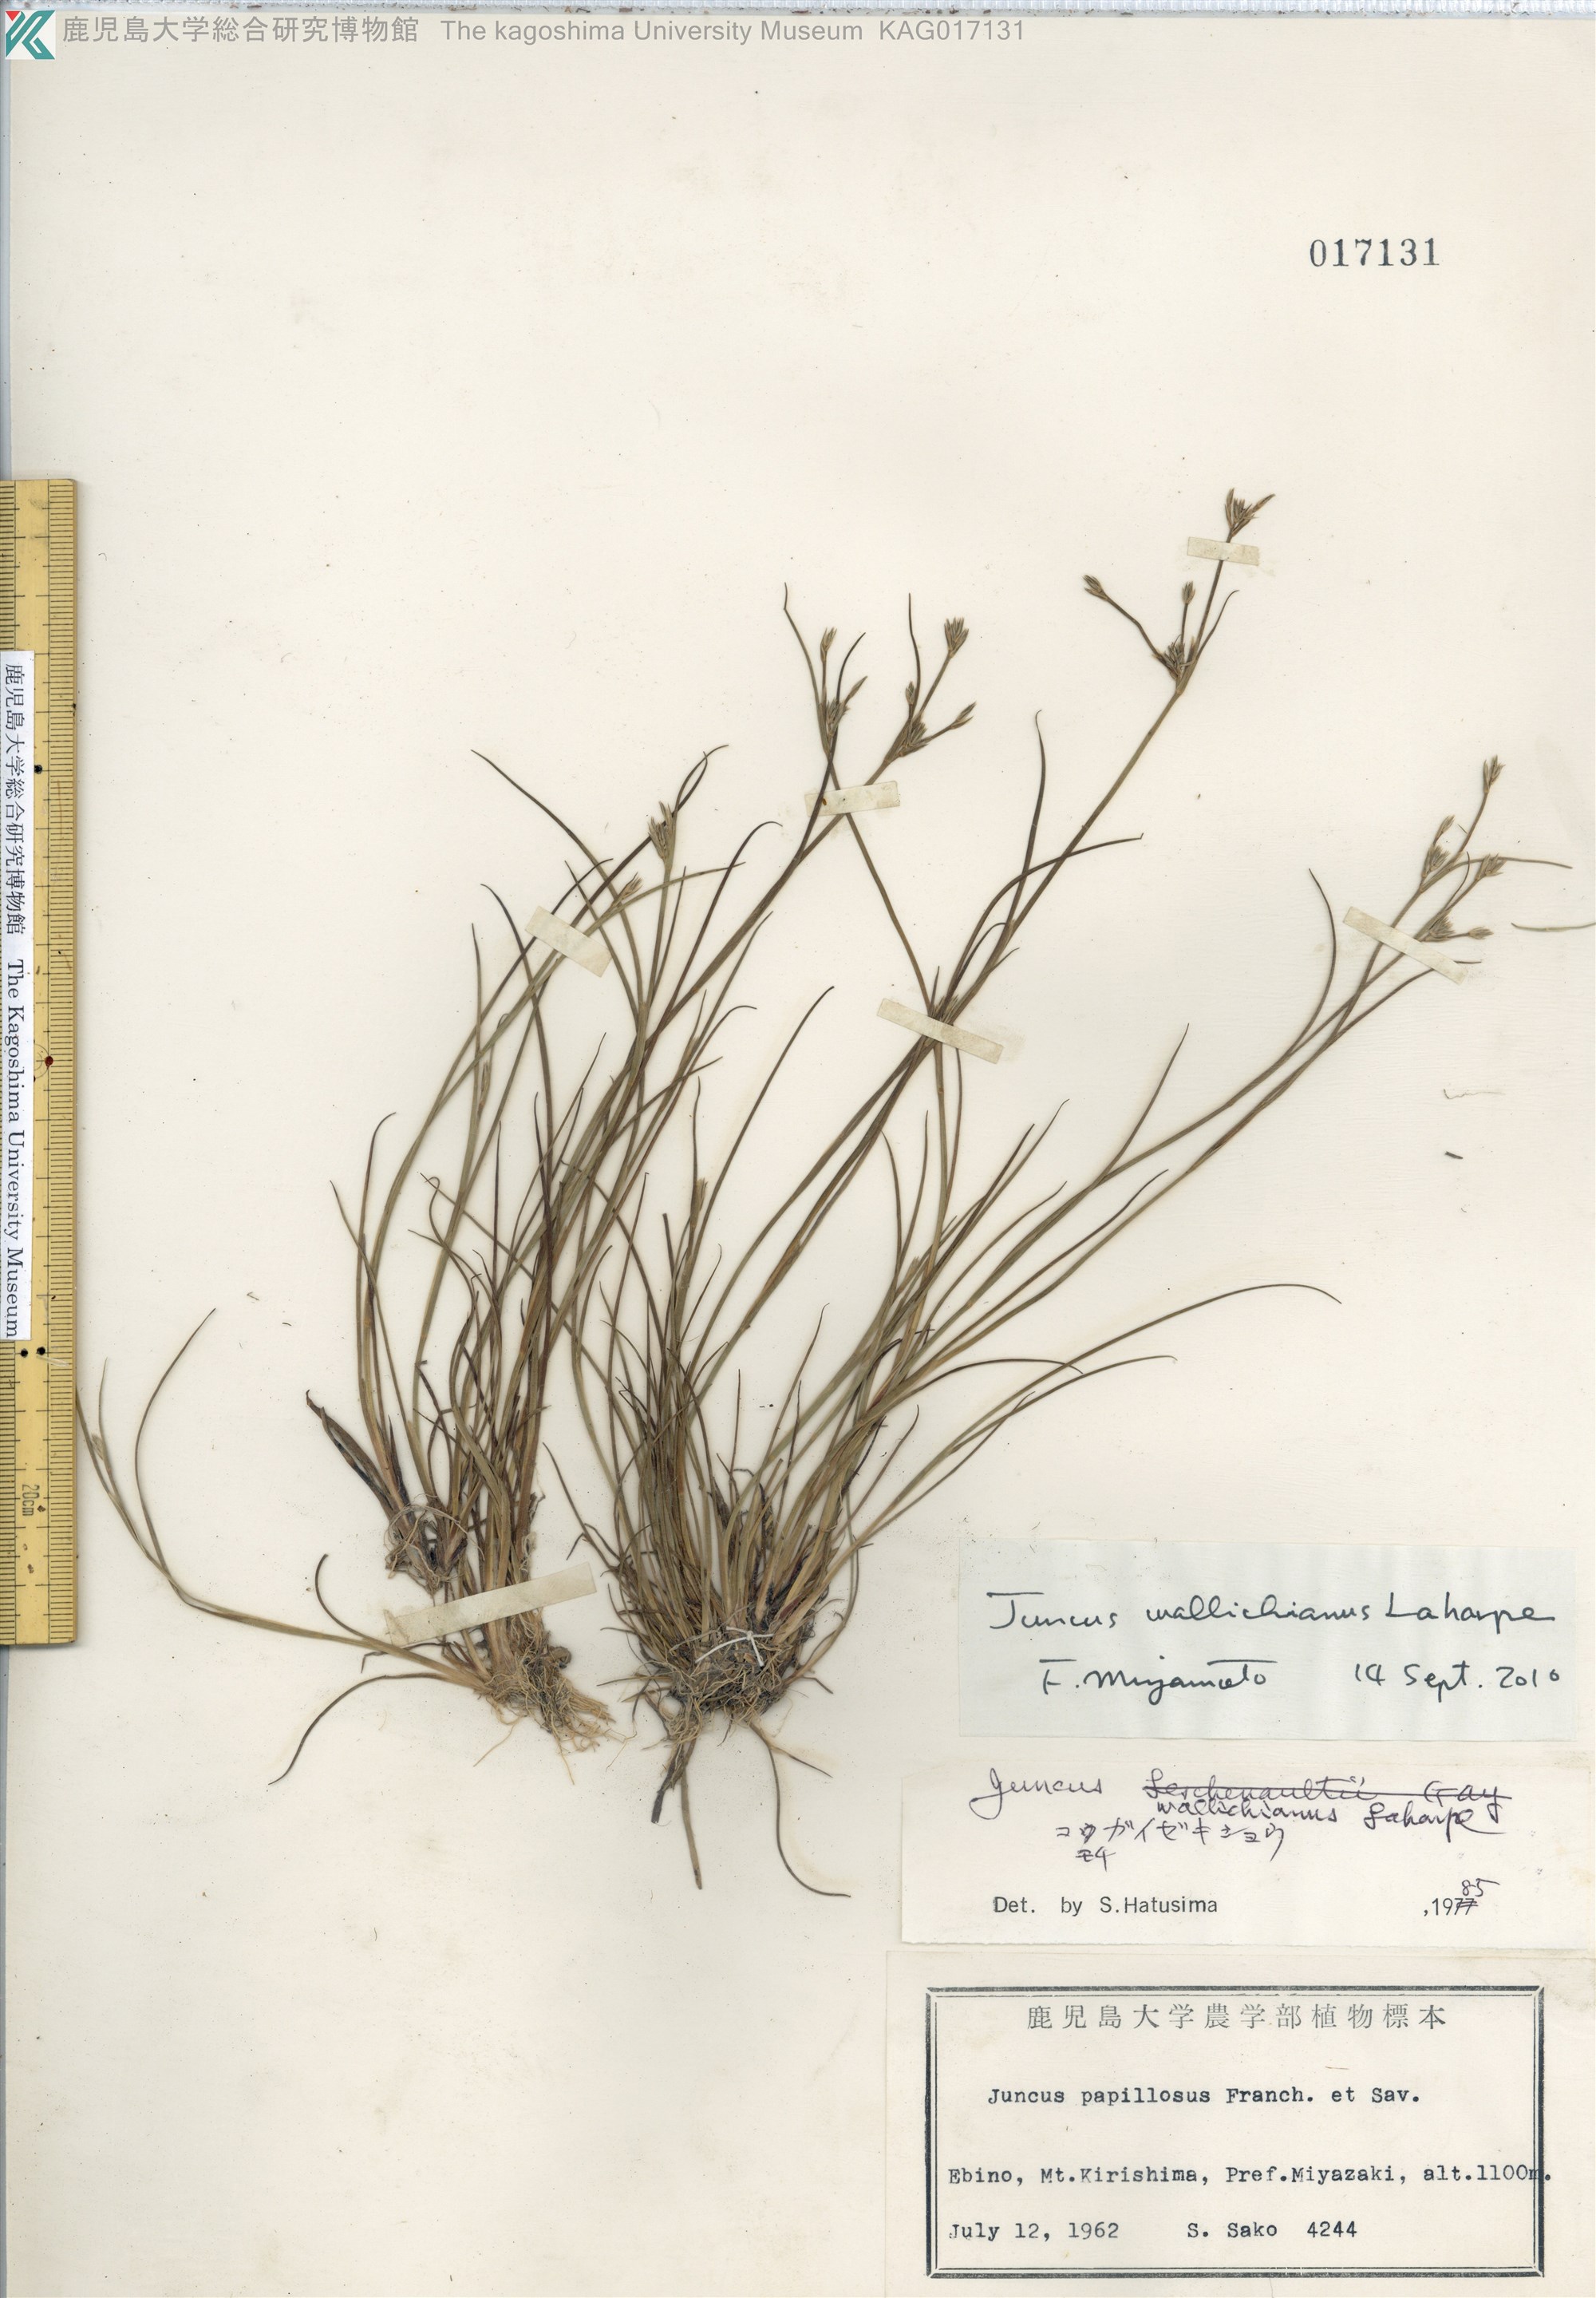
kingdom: Plantae
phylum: Tracheophyta
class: Liliopsida
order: Poales
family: Juncaceae
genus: Juncus
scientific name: Juncus wallichianus
